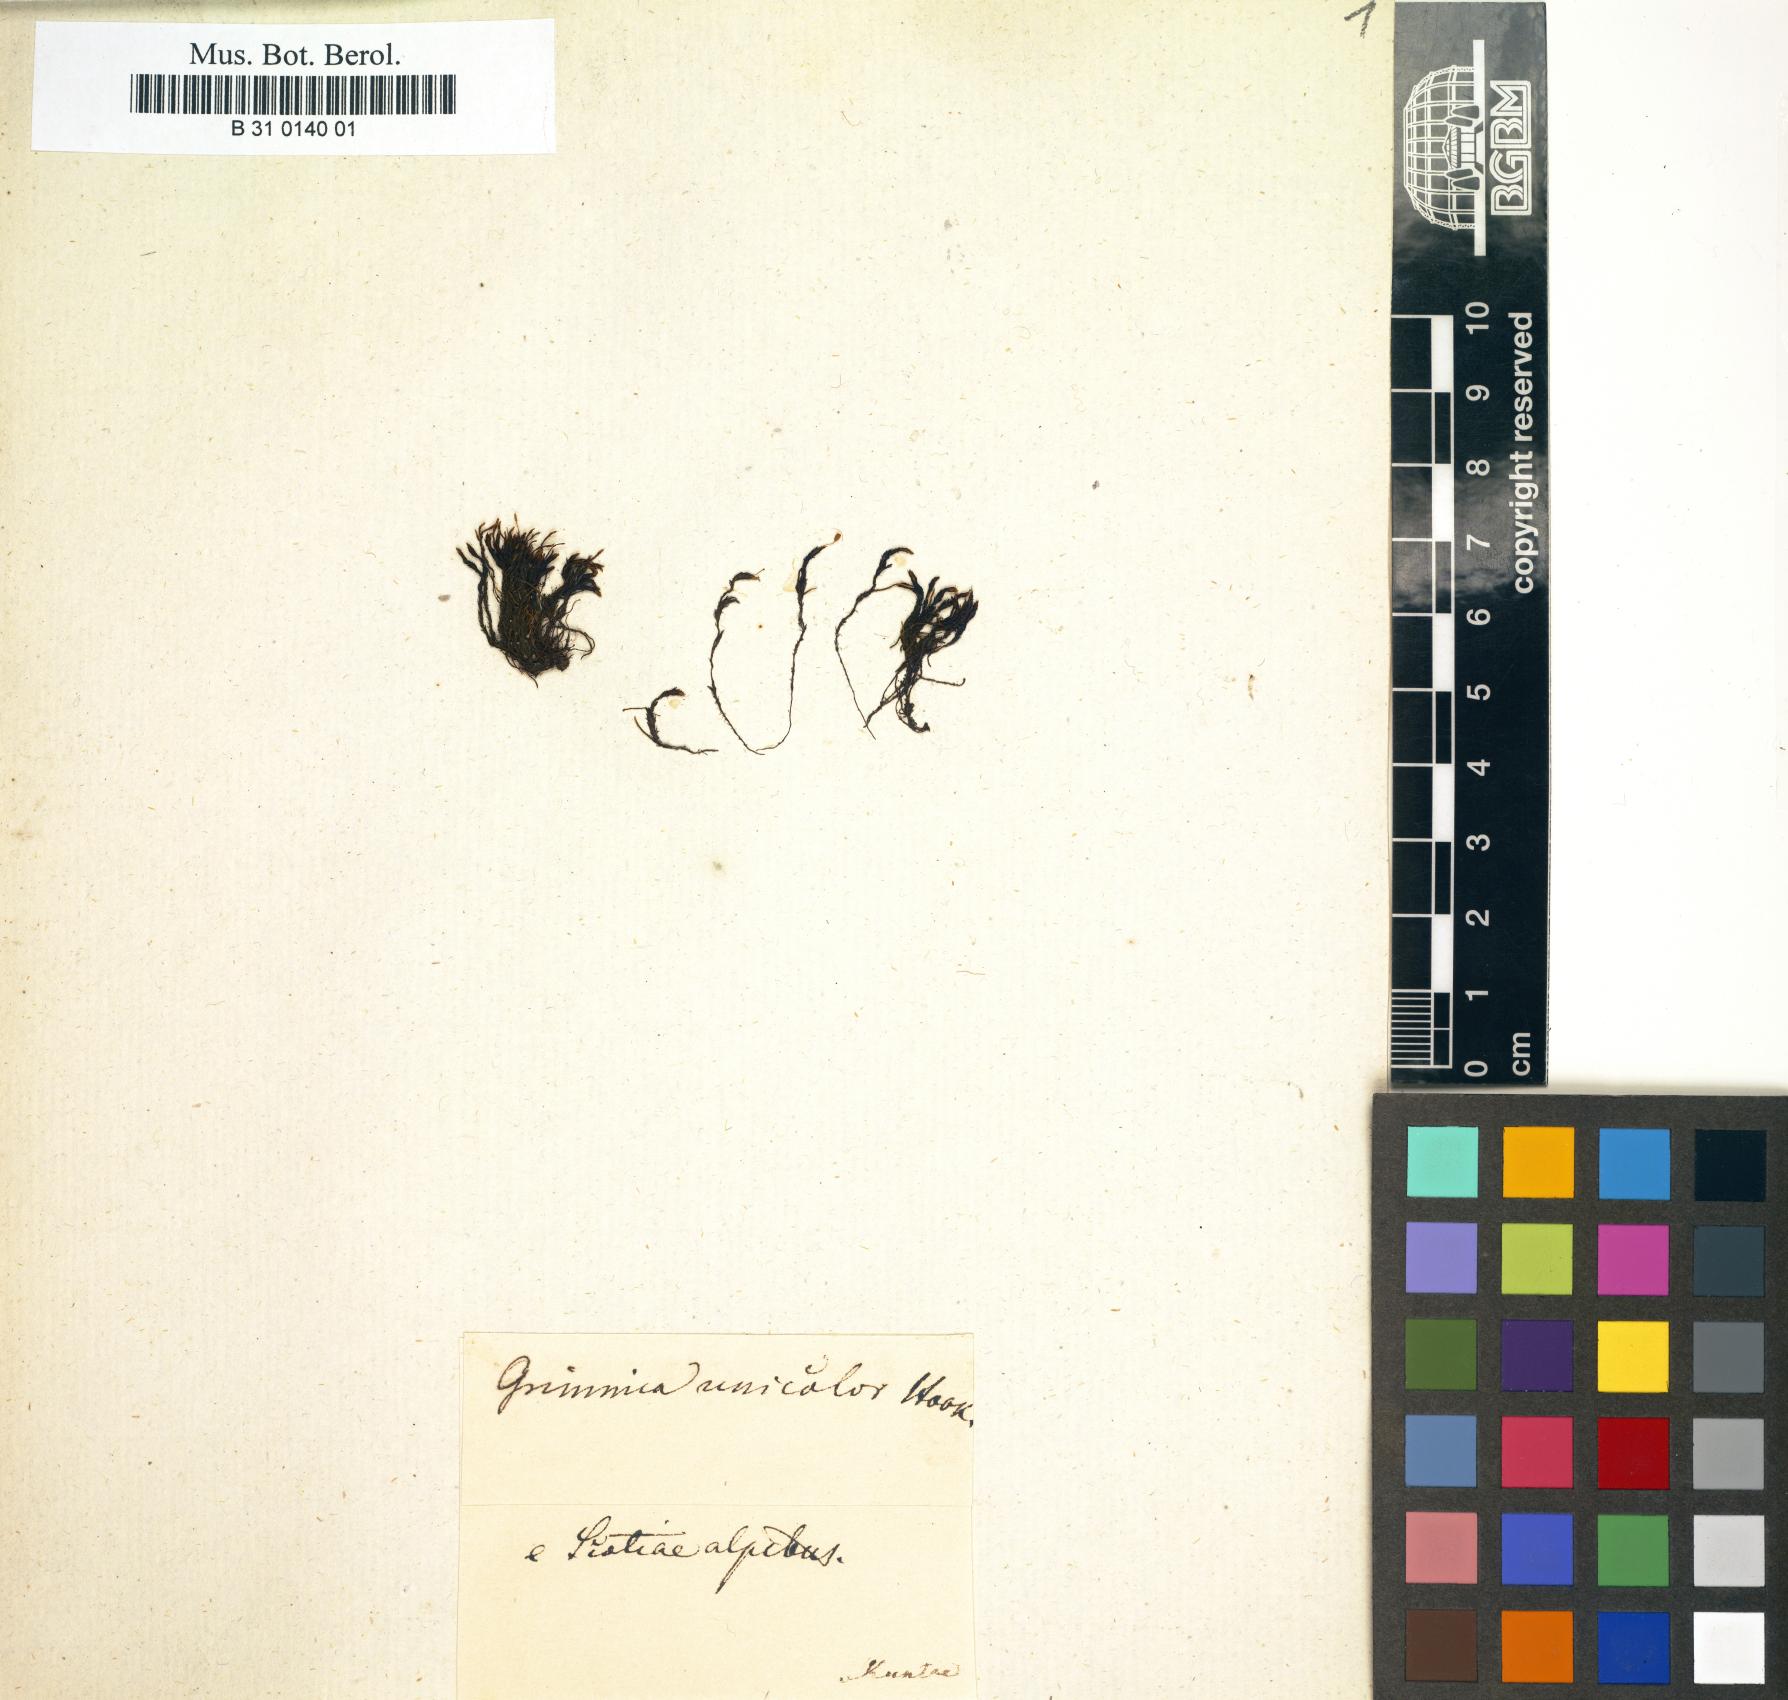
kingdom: Plantae
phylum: Bryophyta
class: Bryopsida
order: Grimmiales
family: Grimmiaceae
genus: Grimmia
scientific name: Grimmia unicolor
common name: Dingy grimmia
